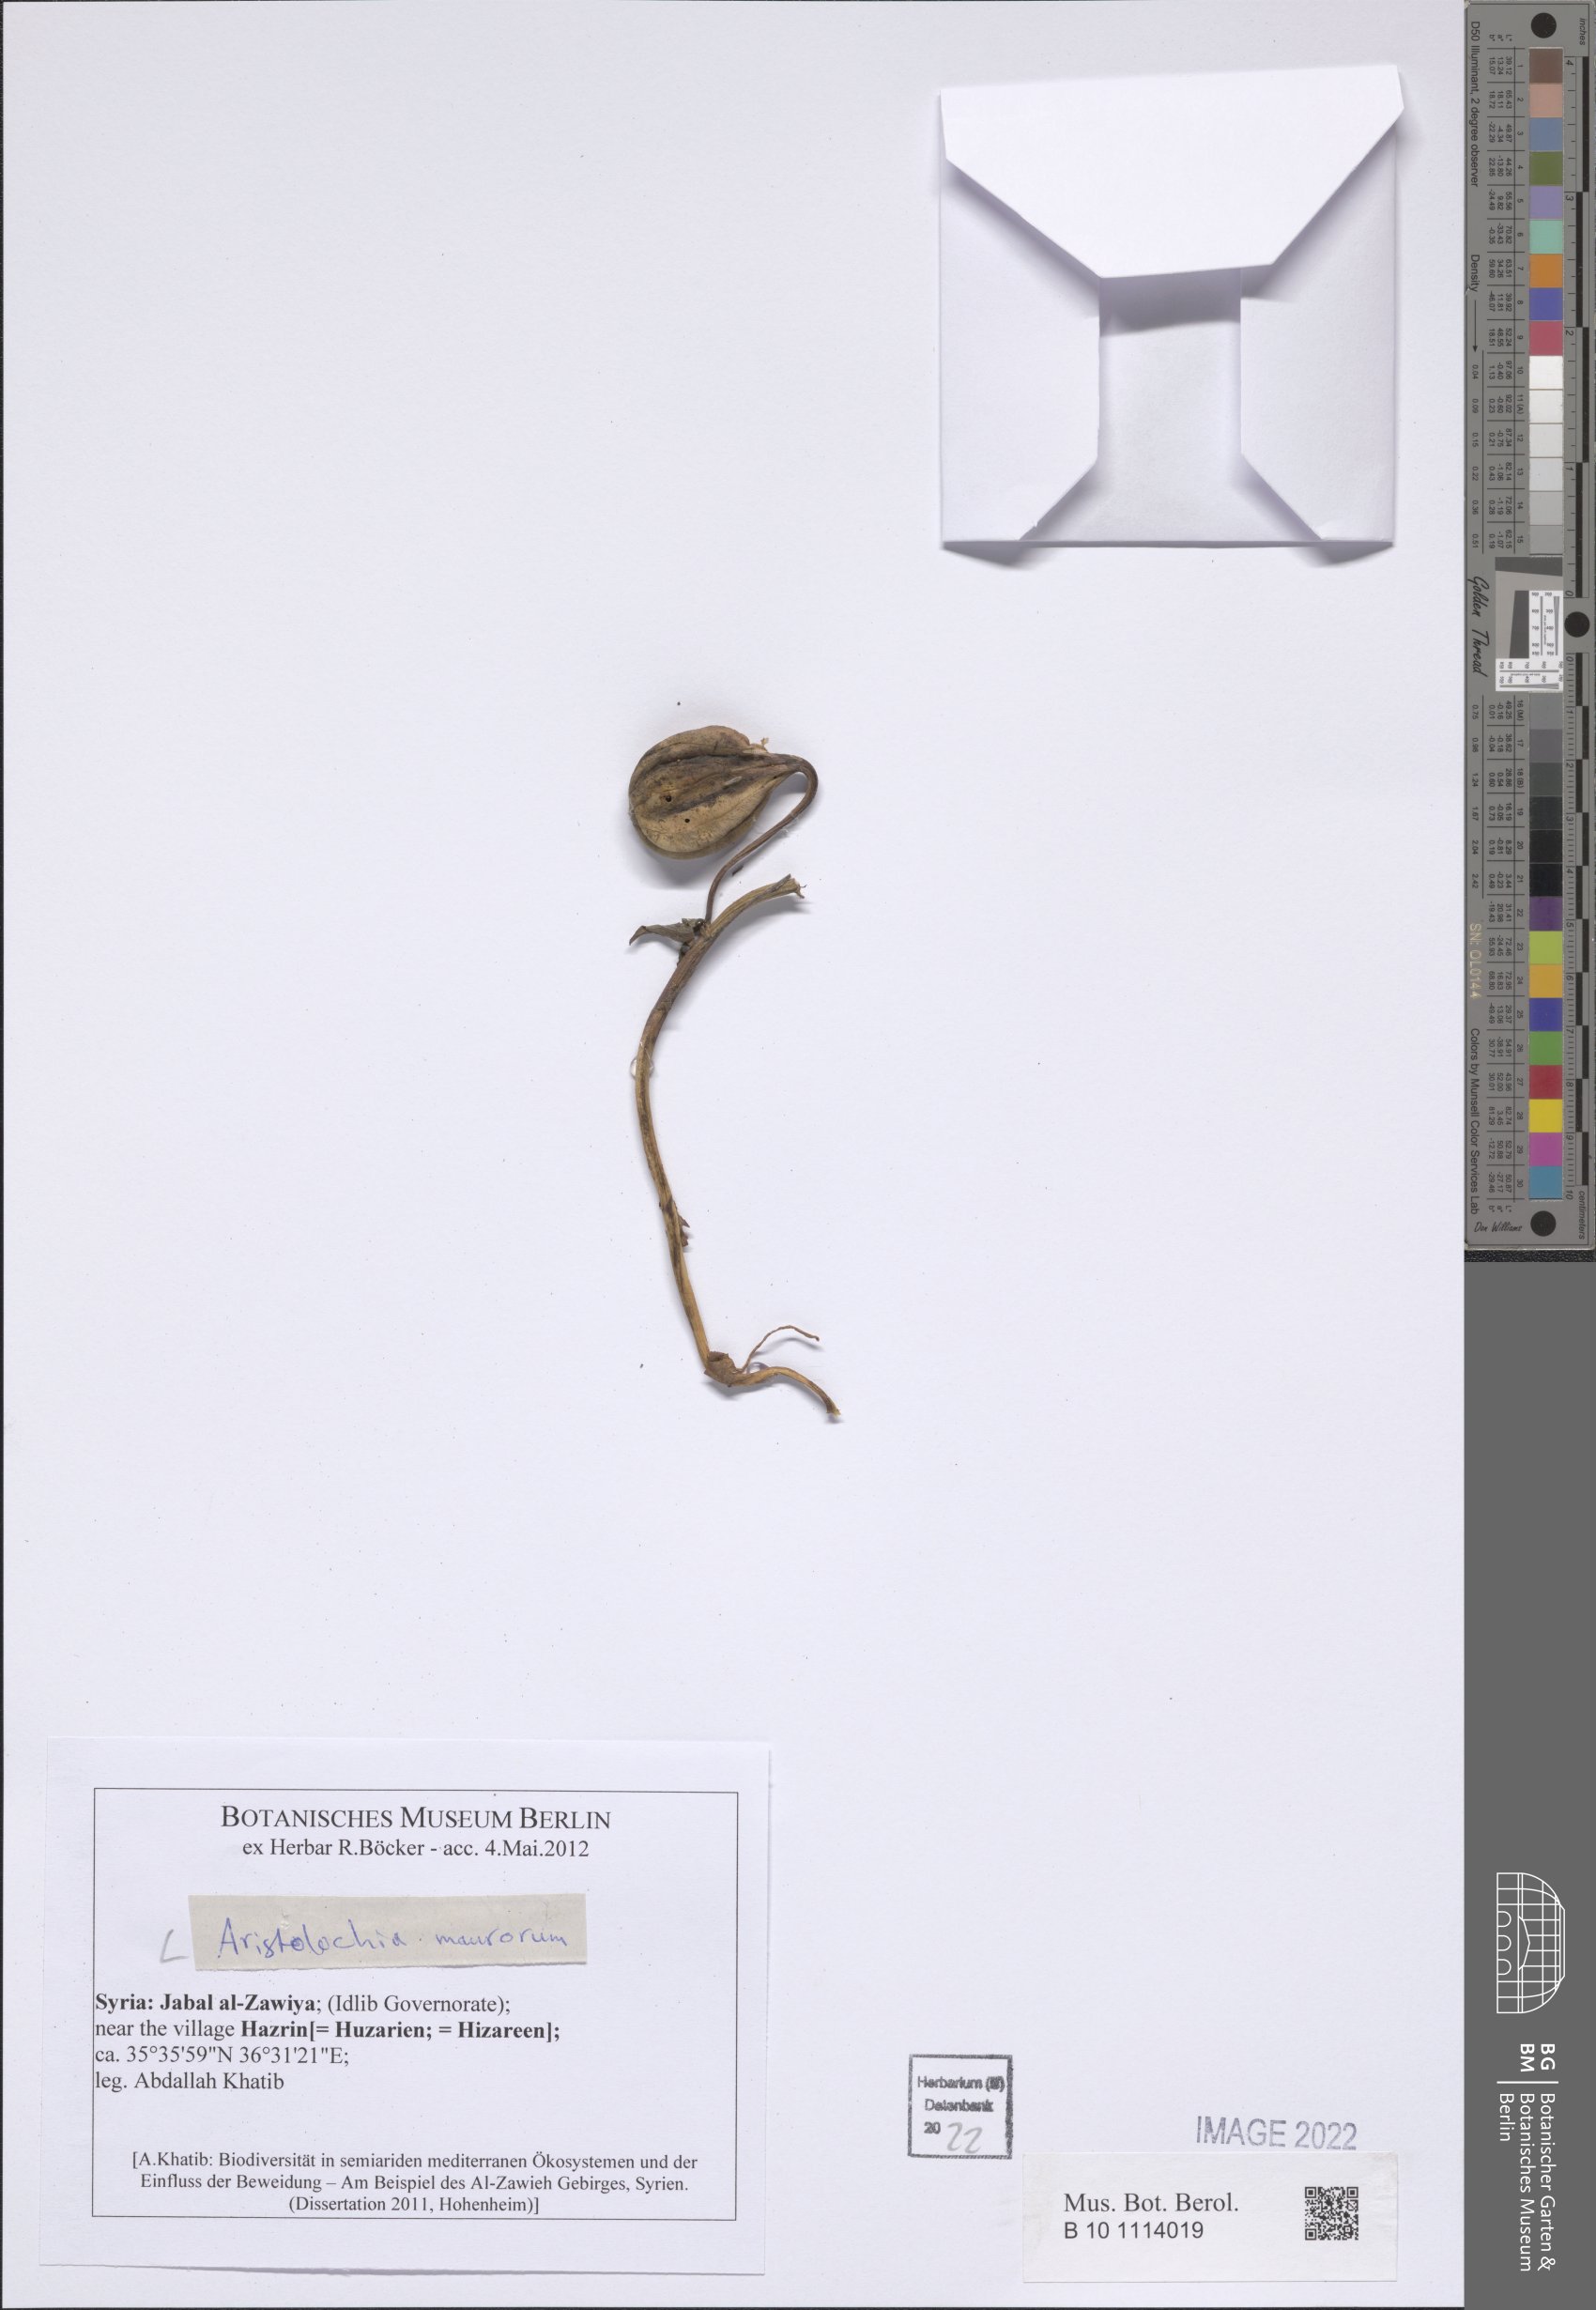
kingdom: Plantae
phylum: Tracheophyta
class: Magnoliopsida
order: Piperales
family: Aristolochiaceae
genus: Aristolochia
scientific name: Aristolochia maurorum
